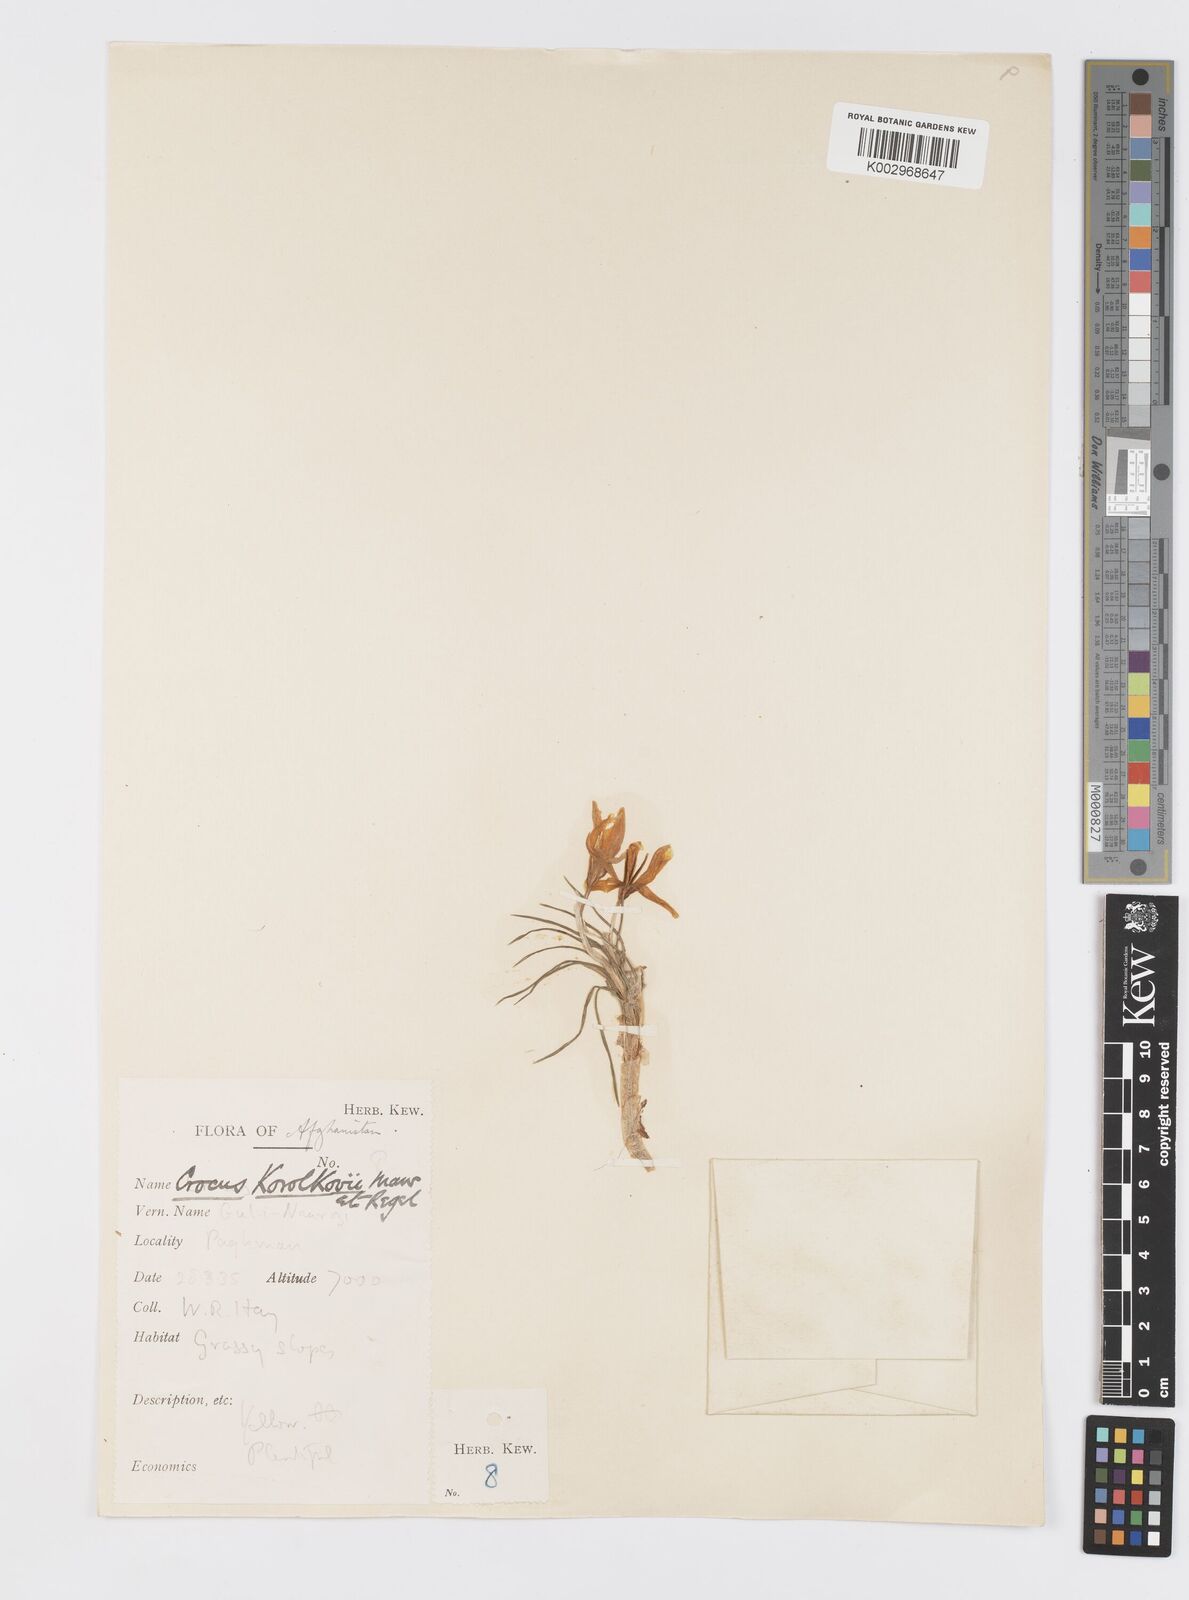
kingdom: Plantae
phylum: Tracheophyta
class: Liliopsida
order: Asparagales
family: Iridaceae
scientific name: Iridaceae
